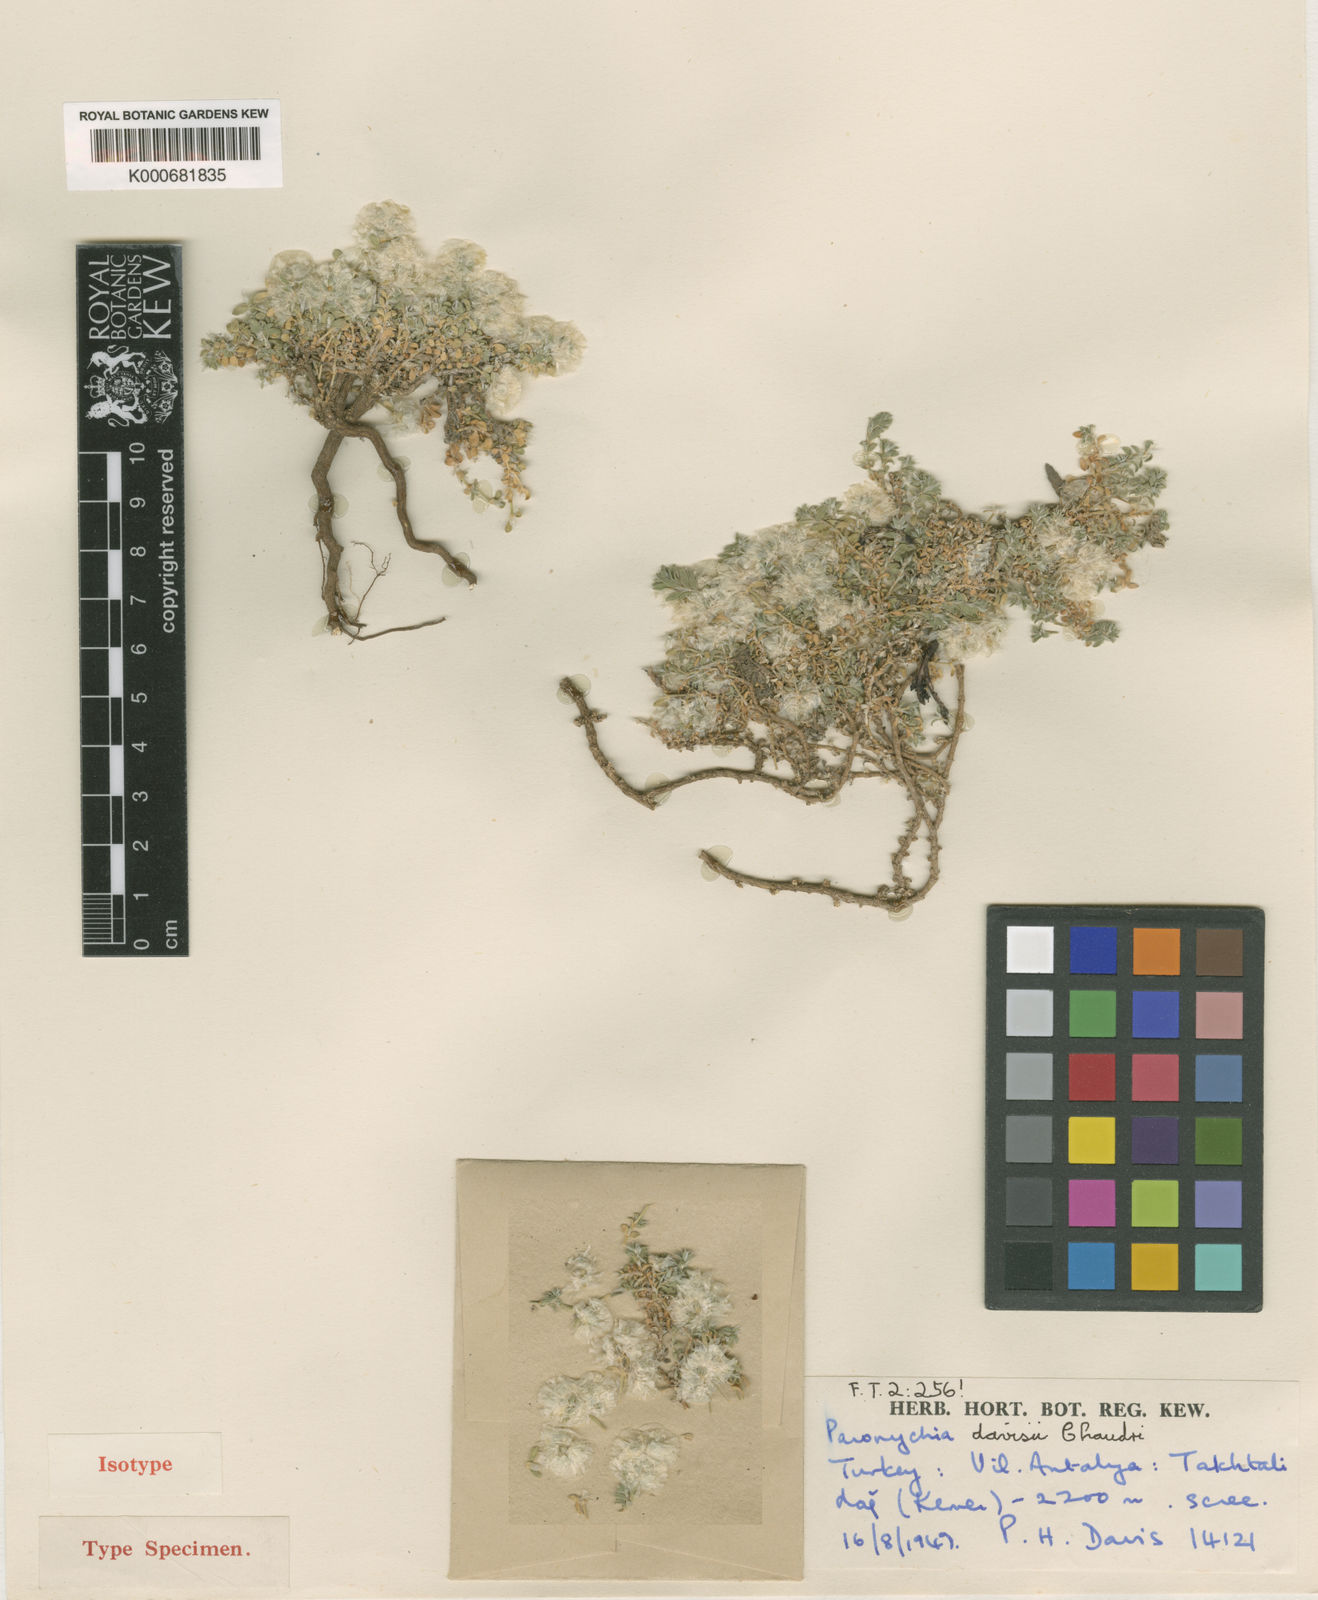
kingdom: Plantae
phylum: Tracheophyta
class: Magnoliopsida
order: Caryophyllales
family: Caryophyllaceae
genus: Paronychia
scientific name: Paronychia davisii
